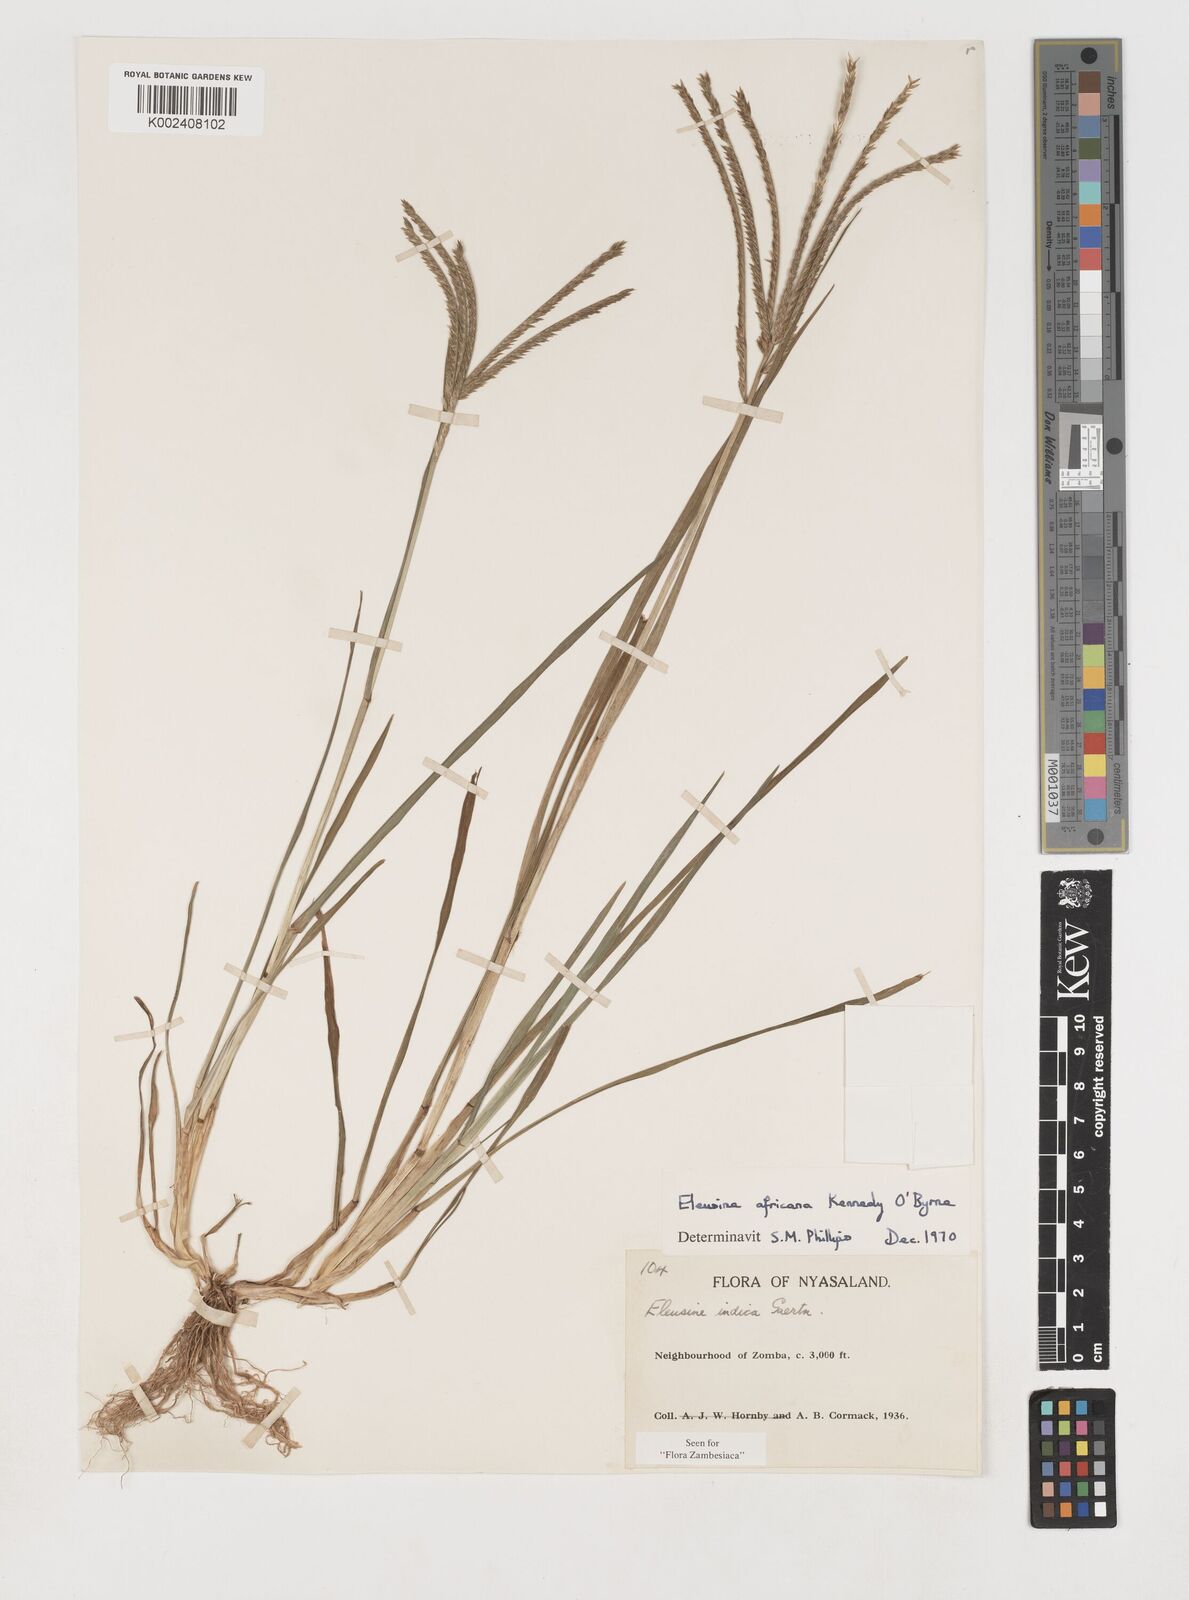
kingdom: Plantae
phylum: Tracheophyta
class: Liliopsida
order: Poales
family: Poaceae
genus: Eleusine
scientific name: Eleusine africana
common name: Wild african finger millet
